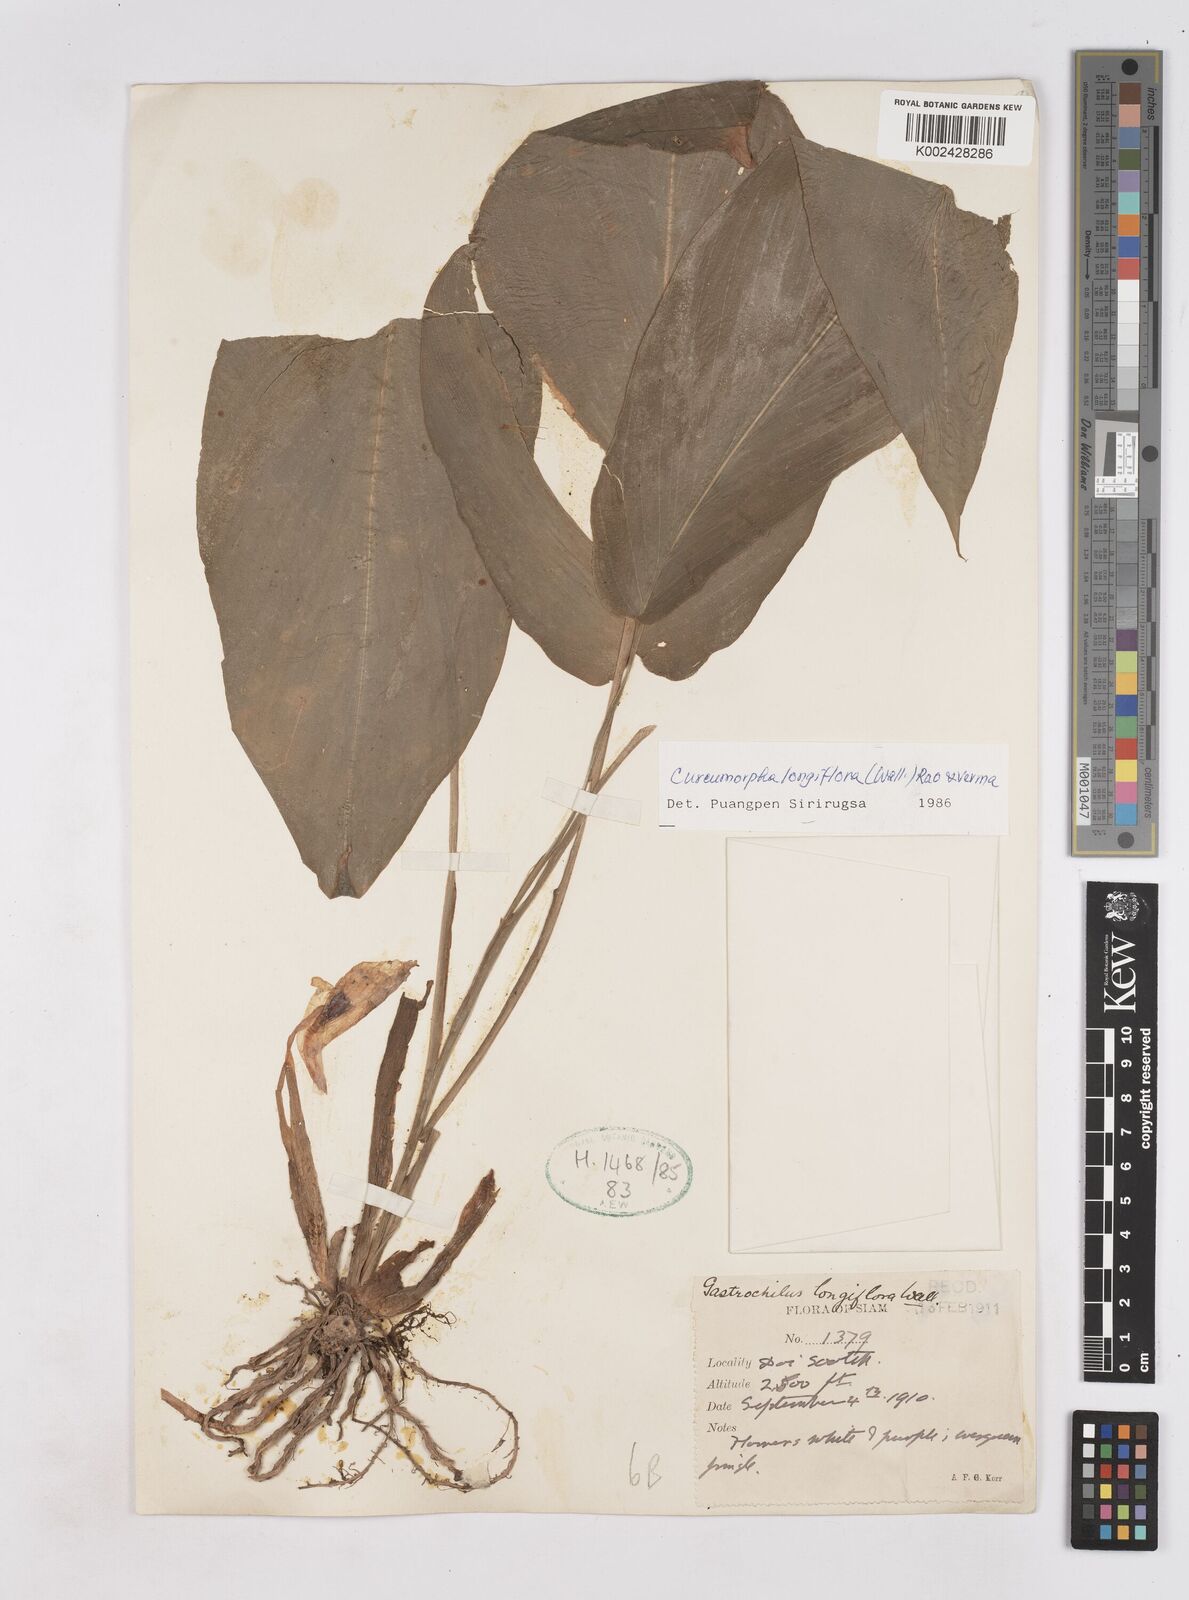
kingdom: Plantae
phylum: Tracheophyta
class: Liliopsida
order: Zingiberales
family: Zingiberaceae
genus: Boesenbergia
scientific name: Boesenbergia longiflora
